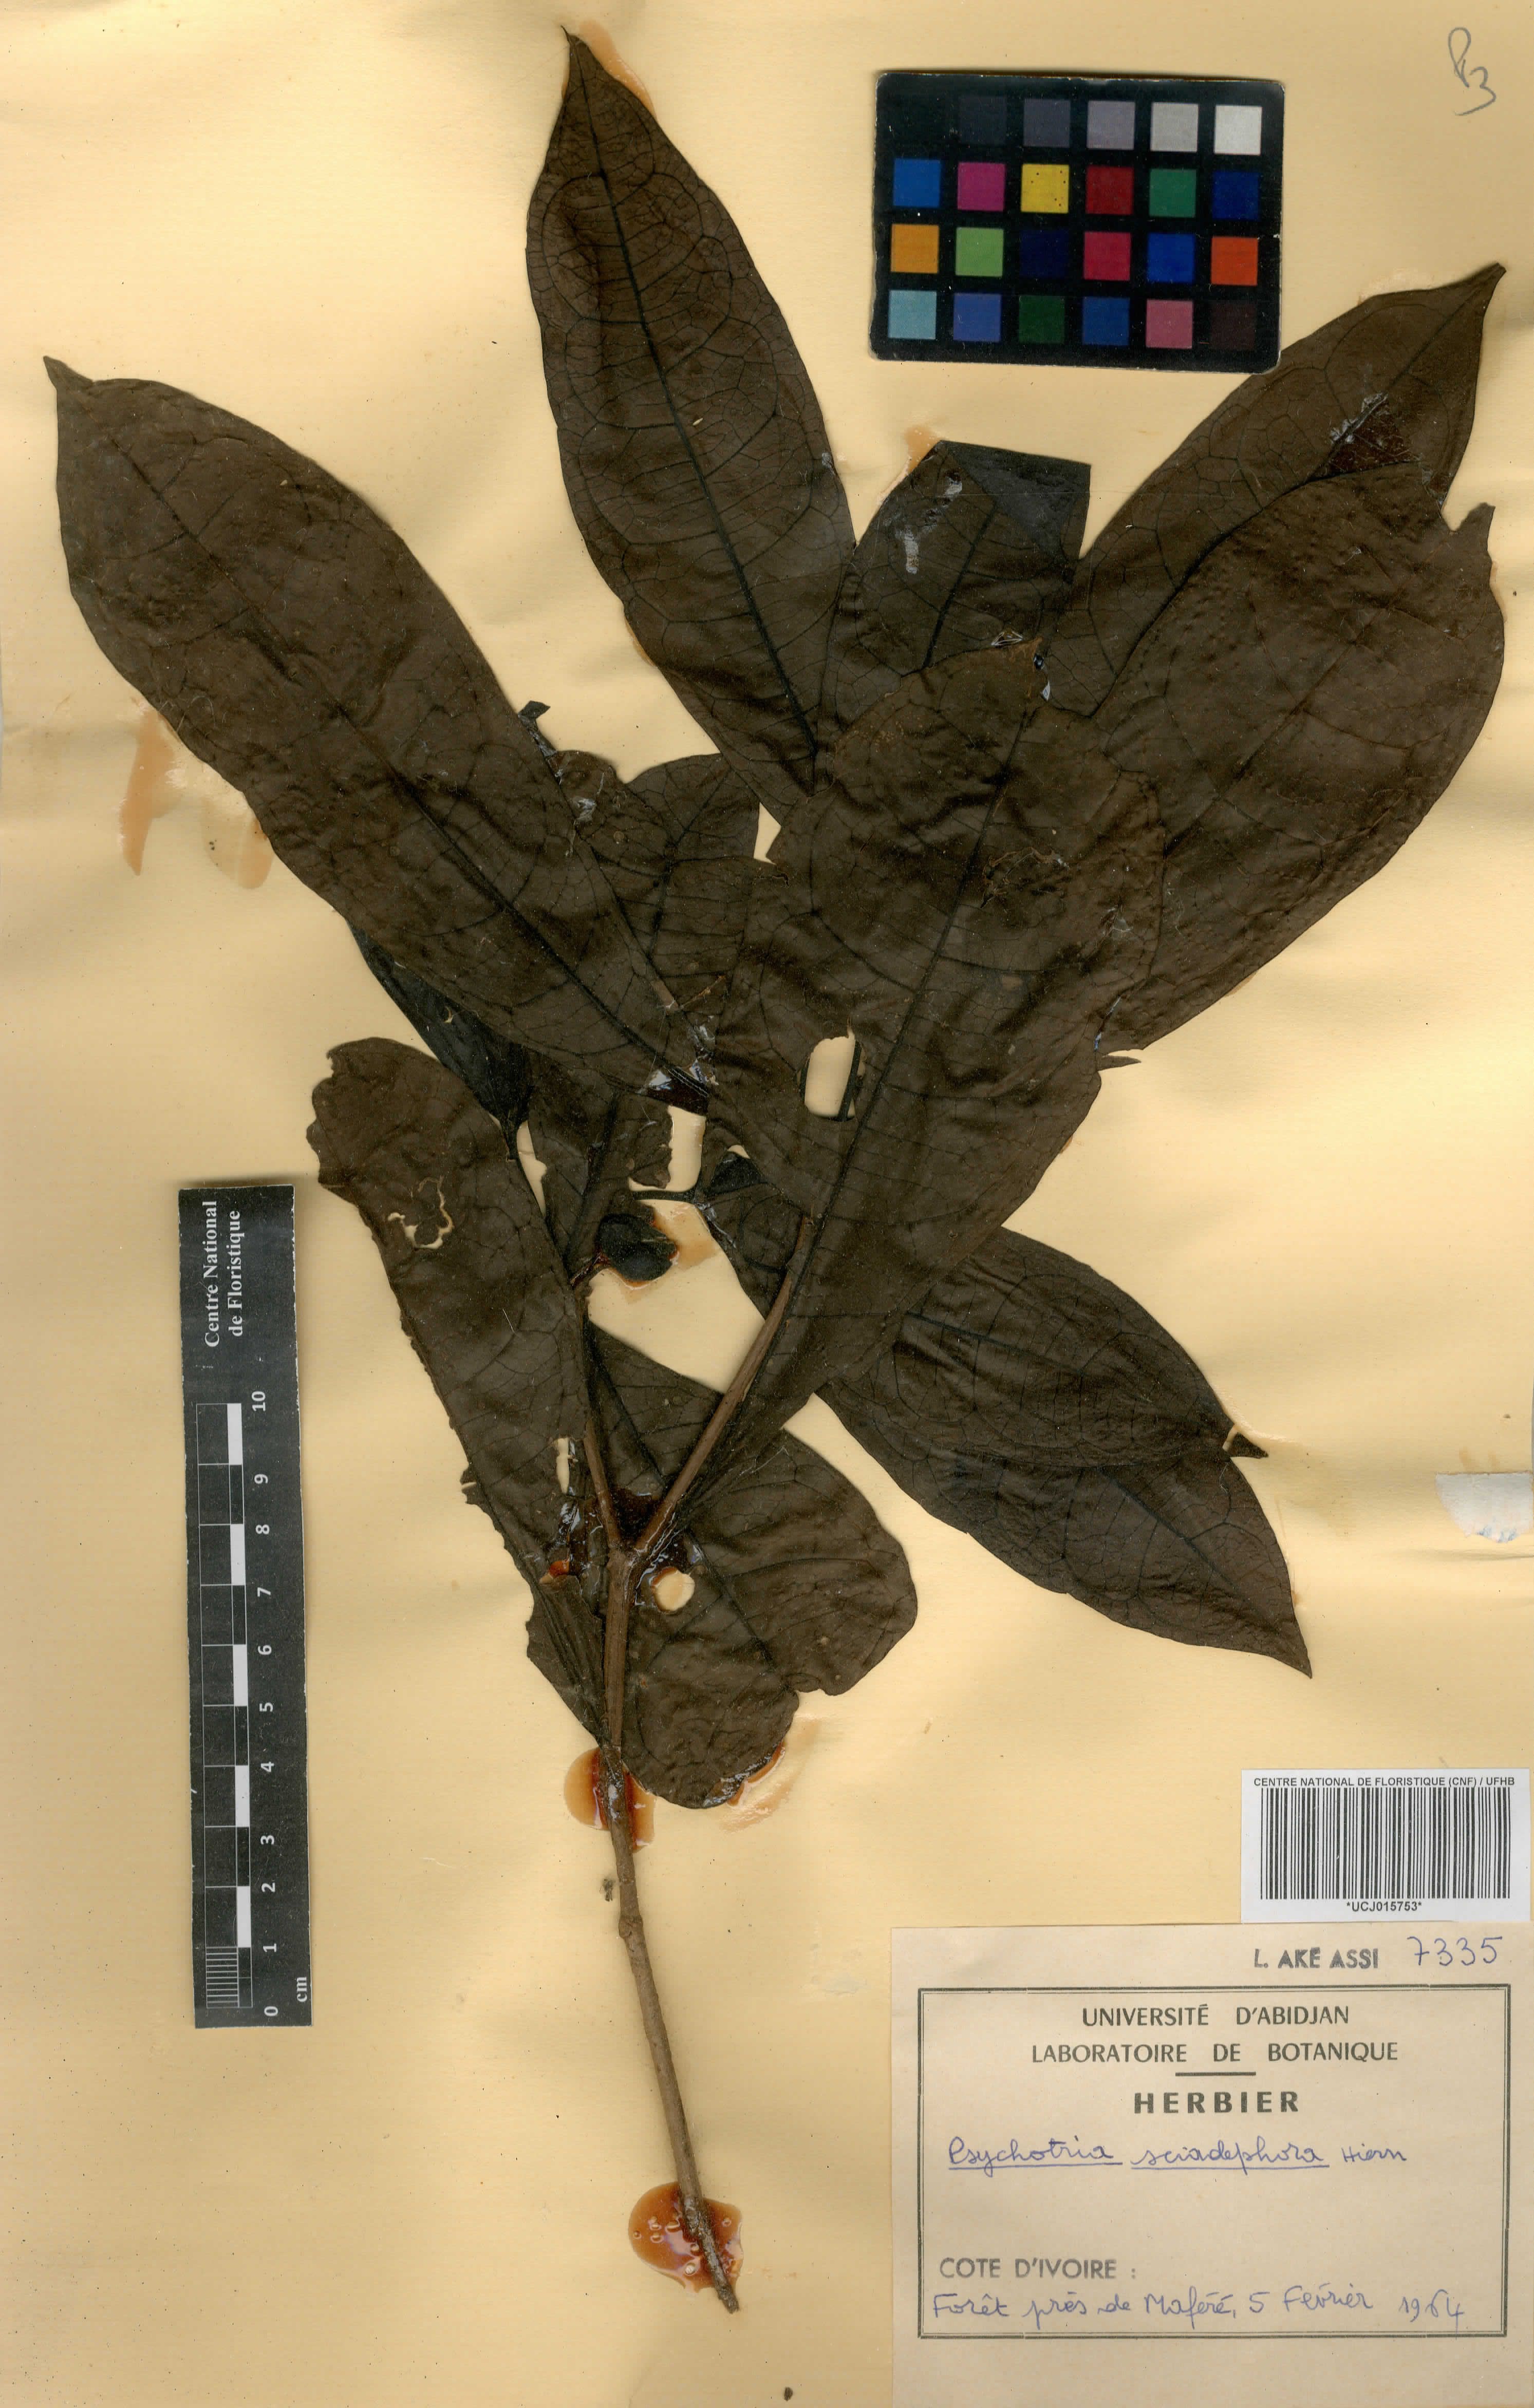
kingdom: Plantae
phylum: Tracheophyta
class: Magnoliopsida
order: Gentianales
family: Rubiaceae
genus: Eumachia
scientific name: Eumachia sciadephora
